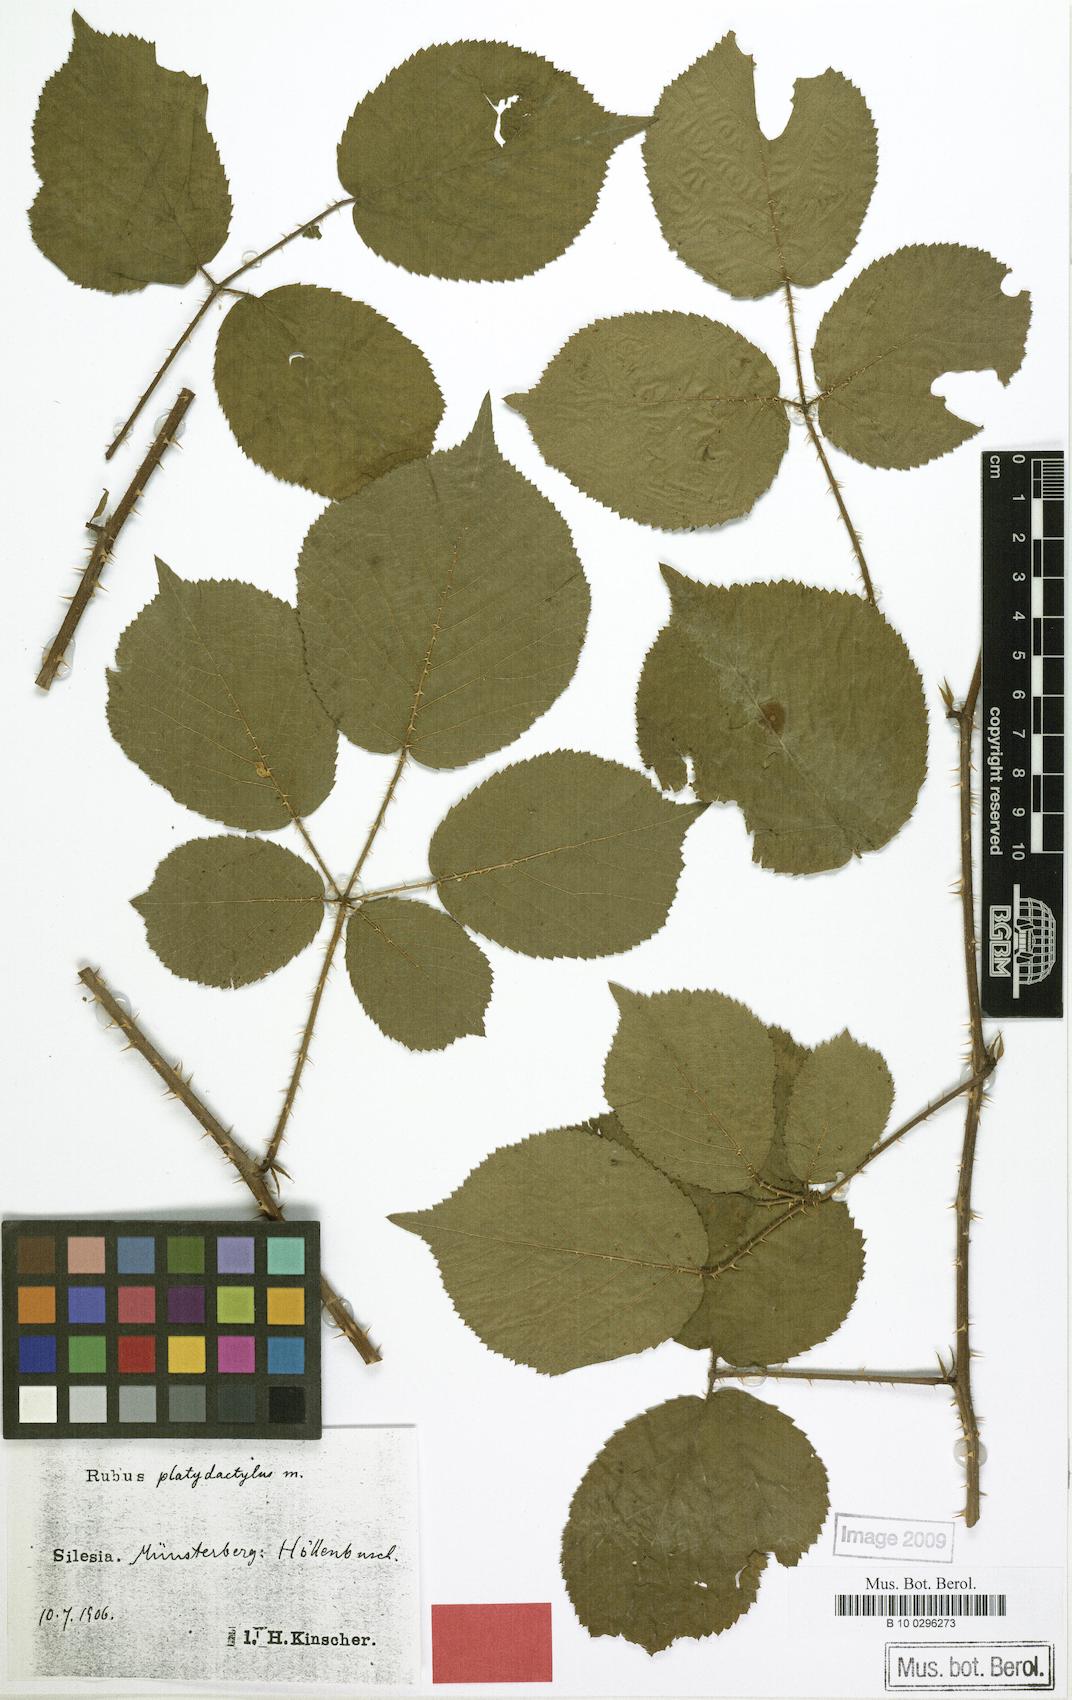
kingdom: Plantae
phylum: Tracheophyta
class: Magnoliopsida
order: Rosales
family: Rosaceae
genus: Rubus
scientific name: Rubus platydactylus
